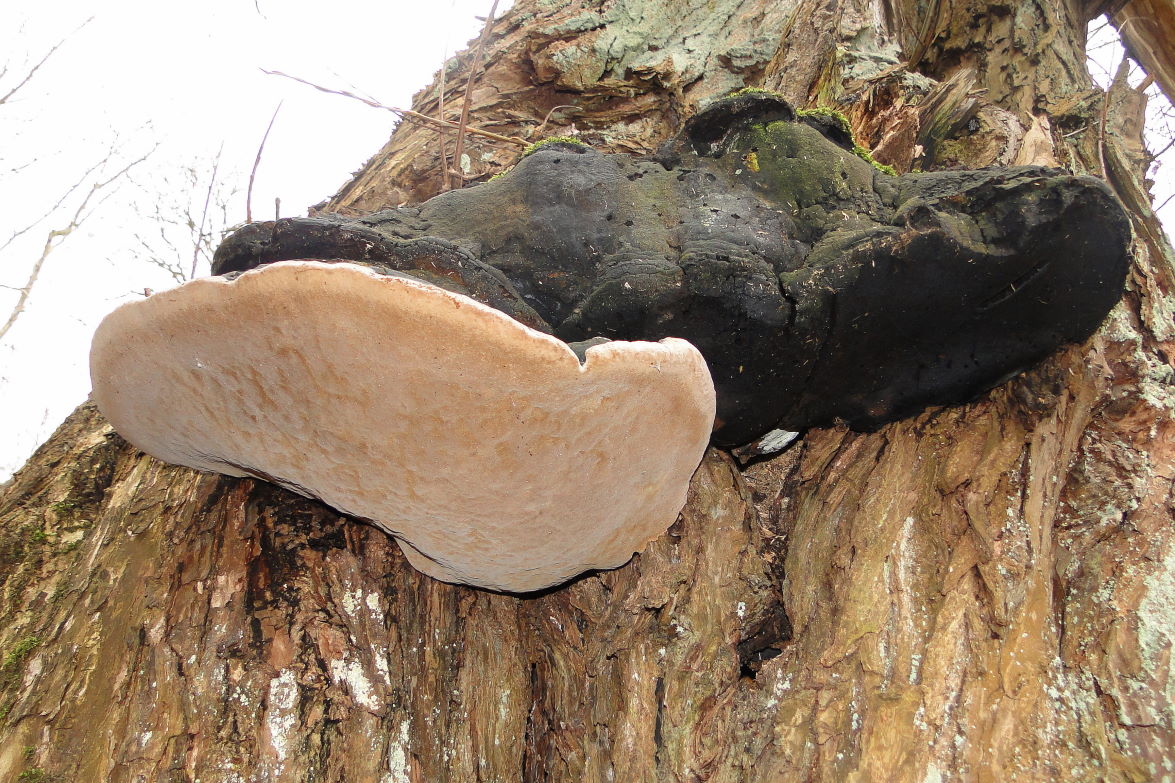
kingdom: Fungi
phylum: Basidiomycota
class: Agaricomycetes
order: Hymenochaetales
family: Hymenochaetaceae
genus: Phellinus
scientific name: Phellinus igniarius
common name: almindelig ildporesvamp
